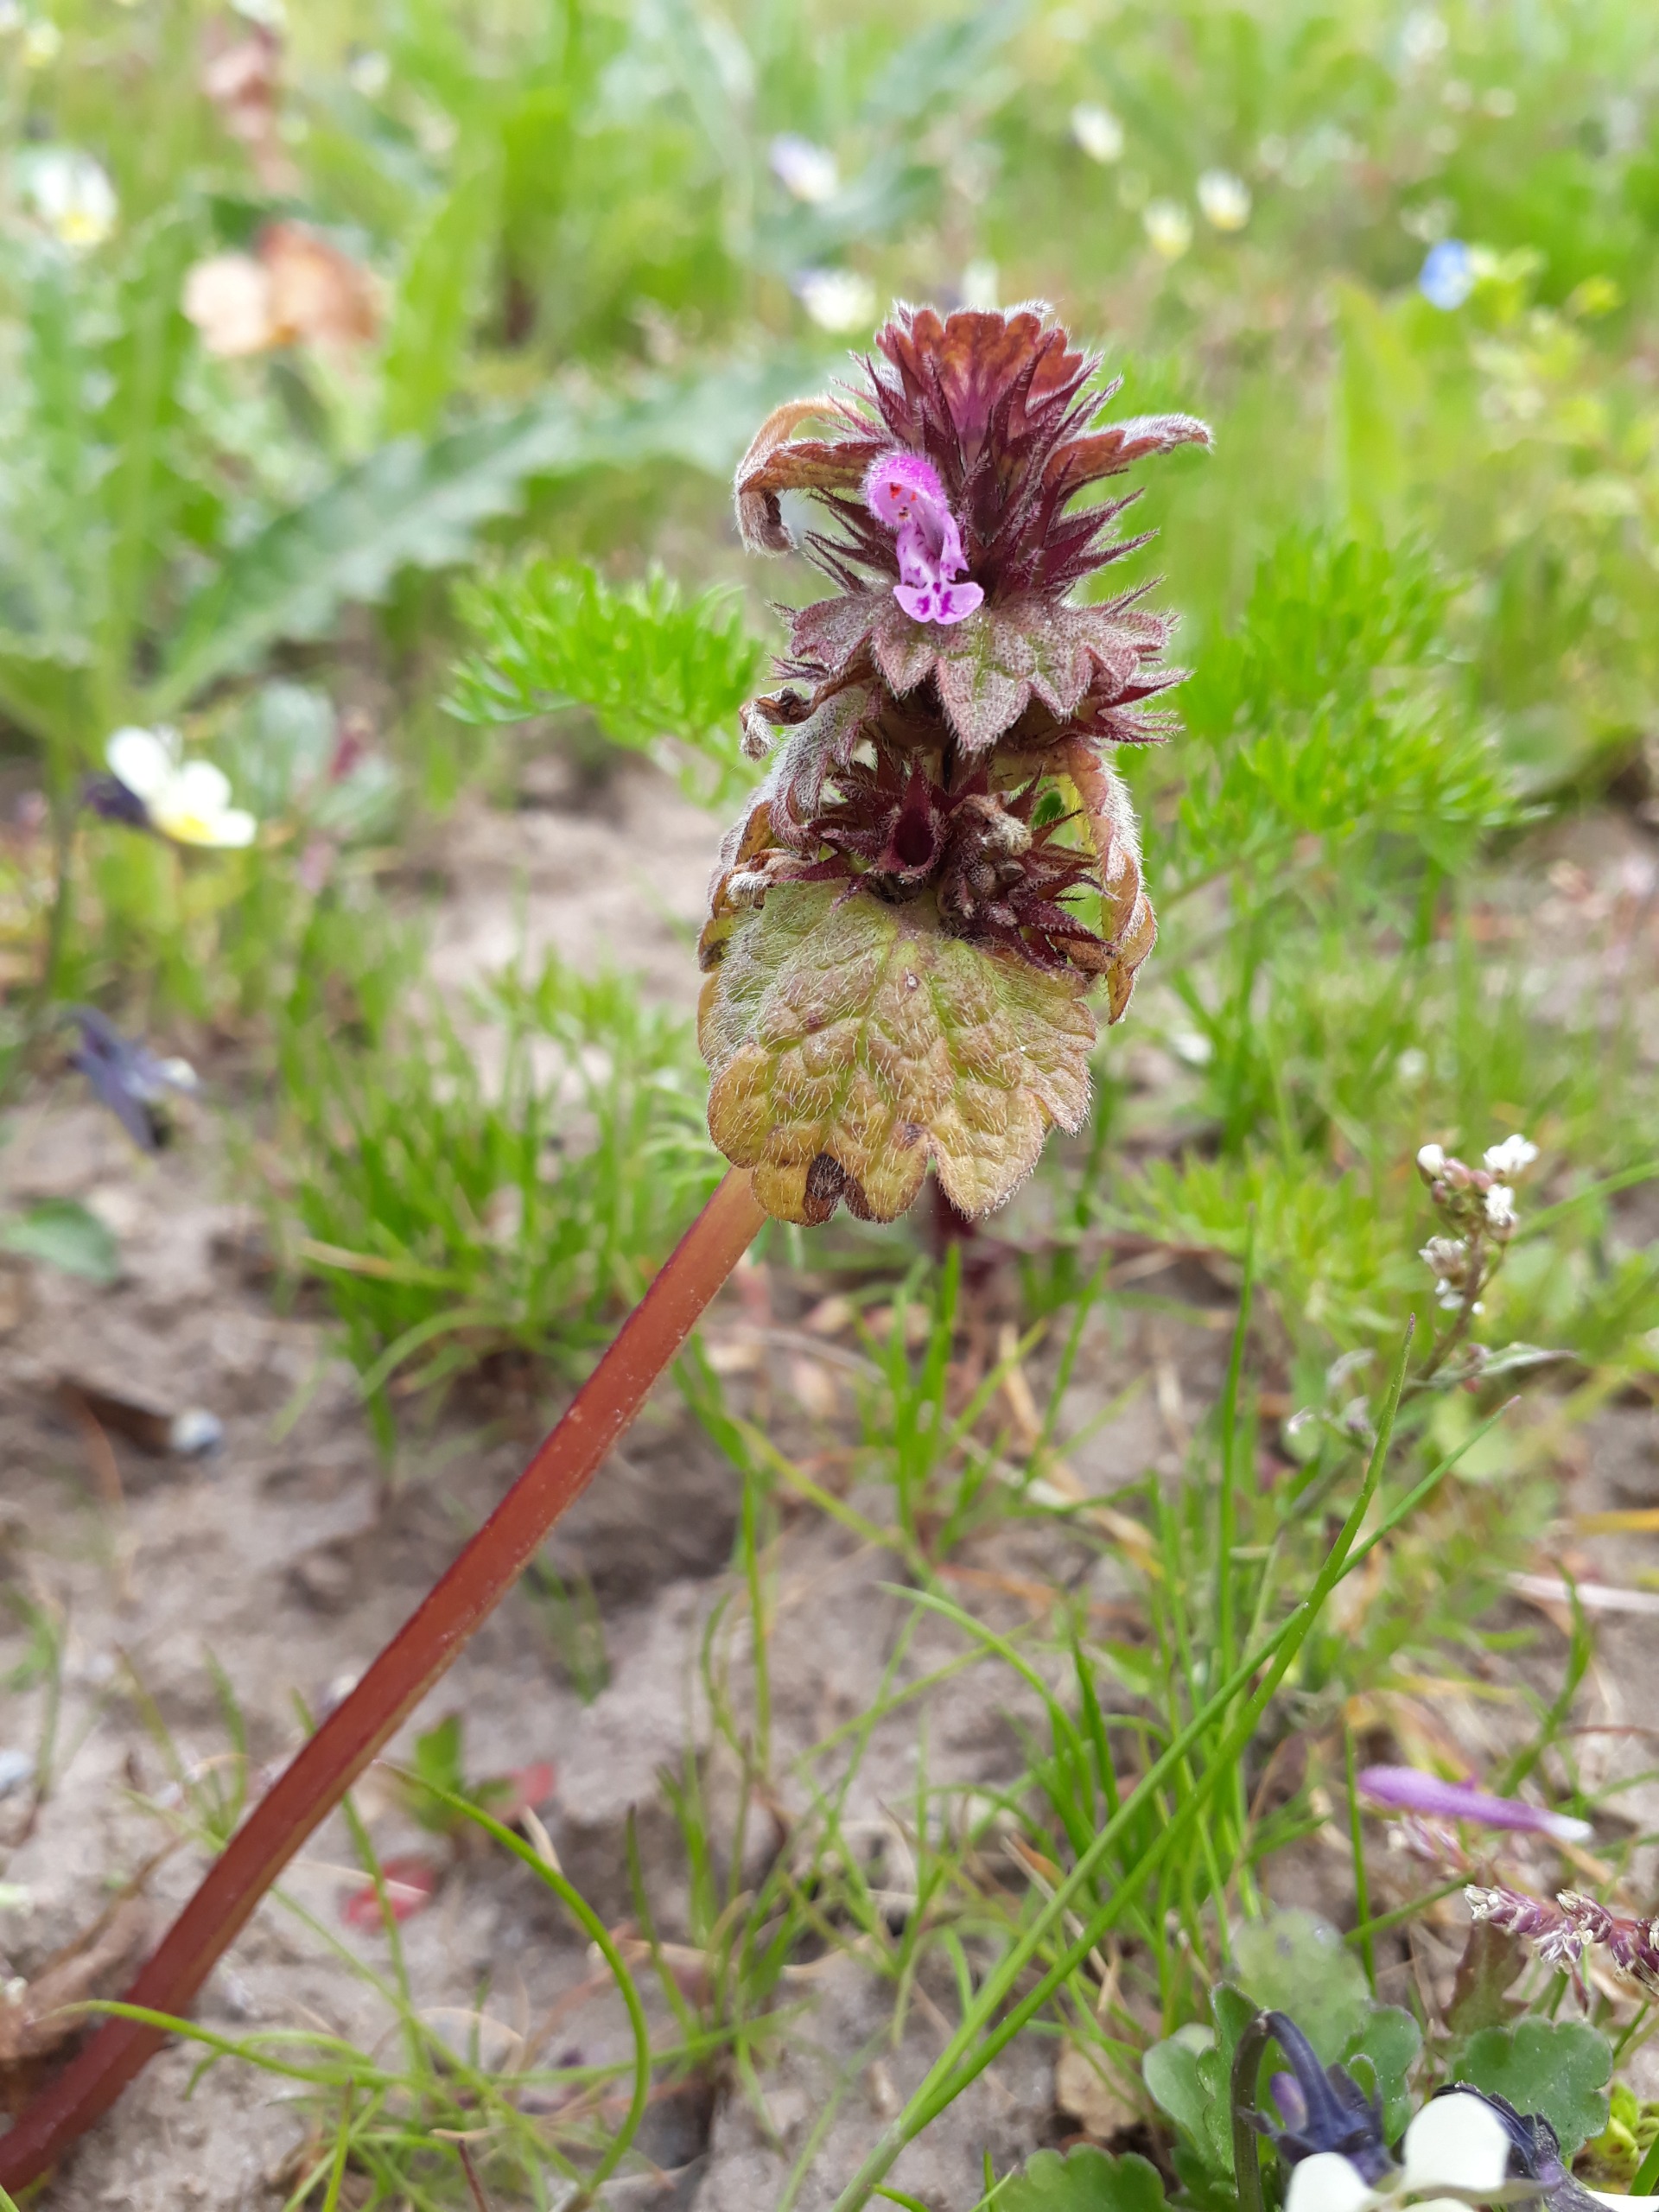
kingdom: Plantae
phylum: Tracheophyta
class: Magnoliopsida
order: Lamiales
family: Lamiaceae
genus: Lamium
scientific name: Lamium purpureum
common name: Rød tvetand
